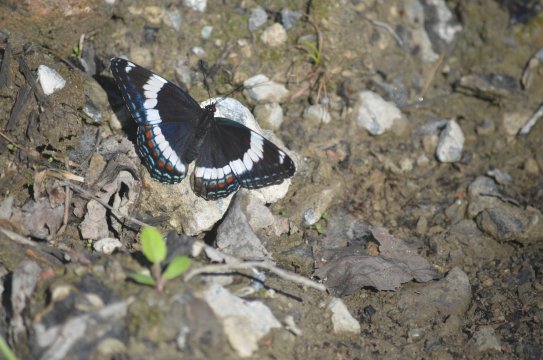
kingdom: Animalia
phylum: Arthropoda
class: Insecta
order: Lepidoptera
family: Nymphalidae
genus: Limenitis
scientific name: Limenitis arthemis
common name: Red-spotted Admiral
